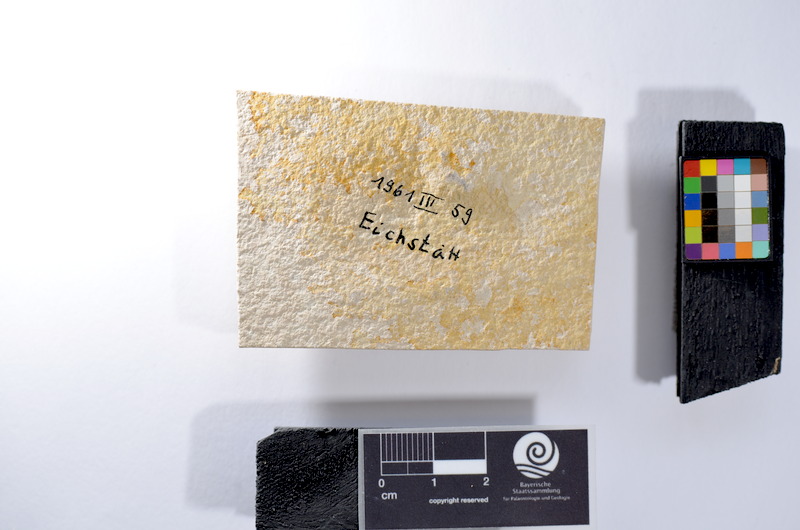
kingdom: Animalia
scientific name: Animalia
